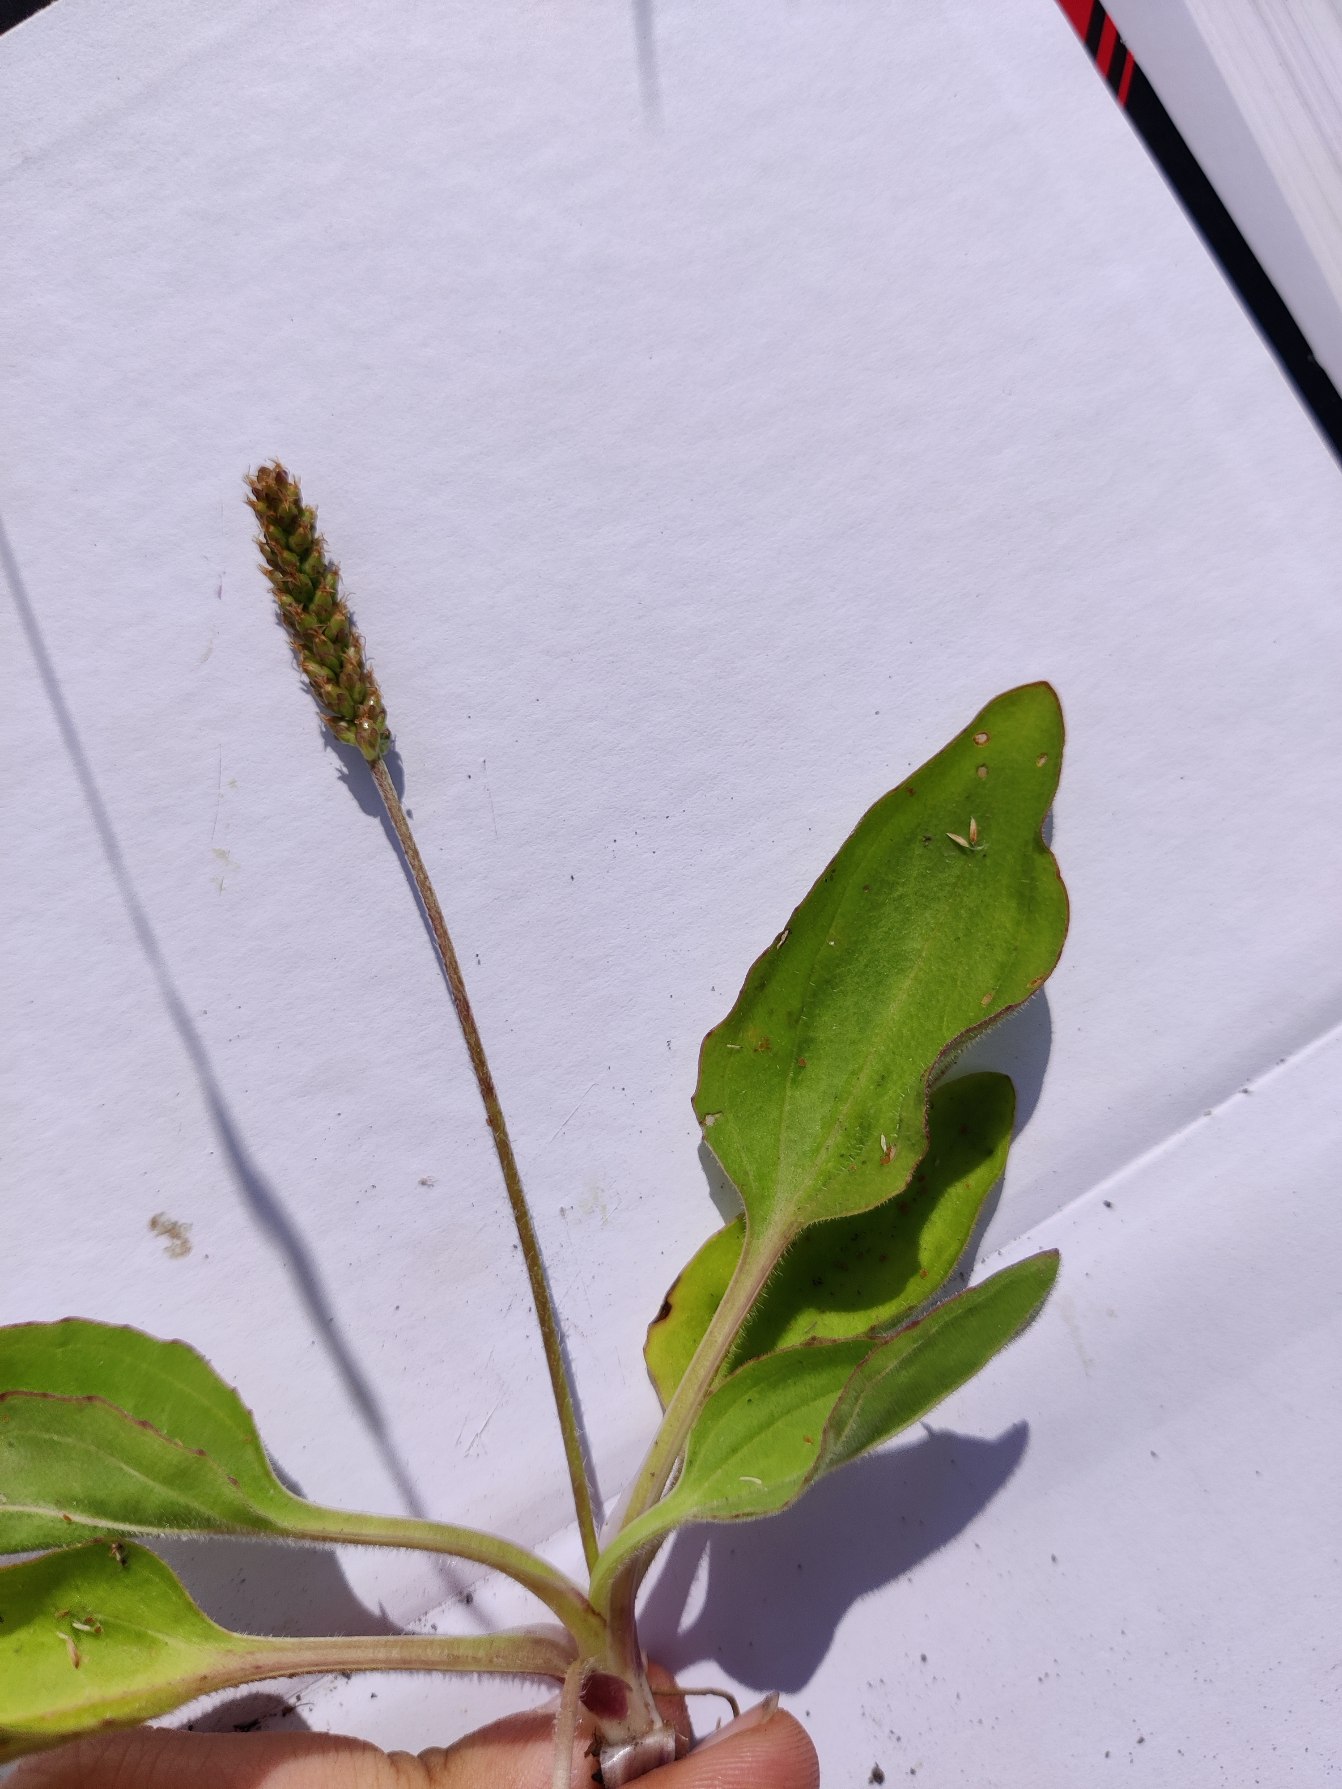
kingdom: Plantae
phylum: Tracheophyta
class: Magnoliopsida
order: Lamiales
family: Plantaginaceae
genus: Plantago
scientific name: Plantago major
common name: Glat vejbred
